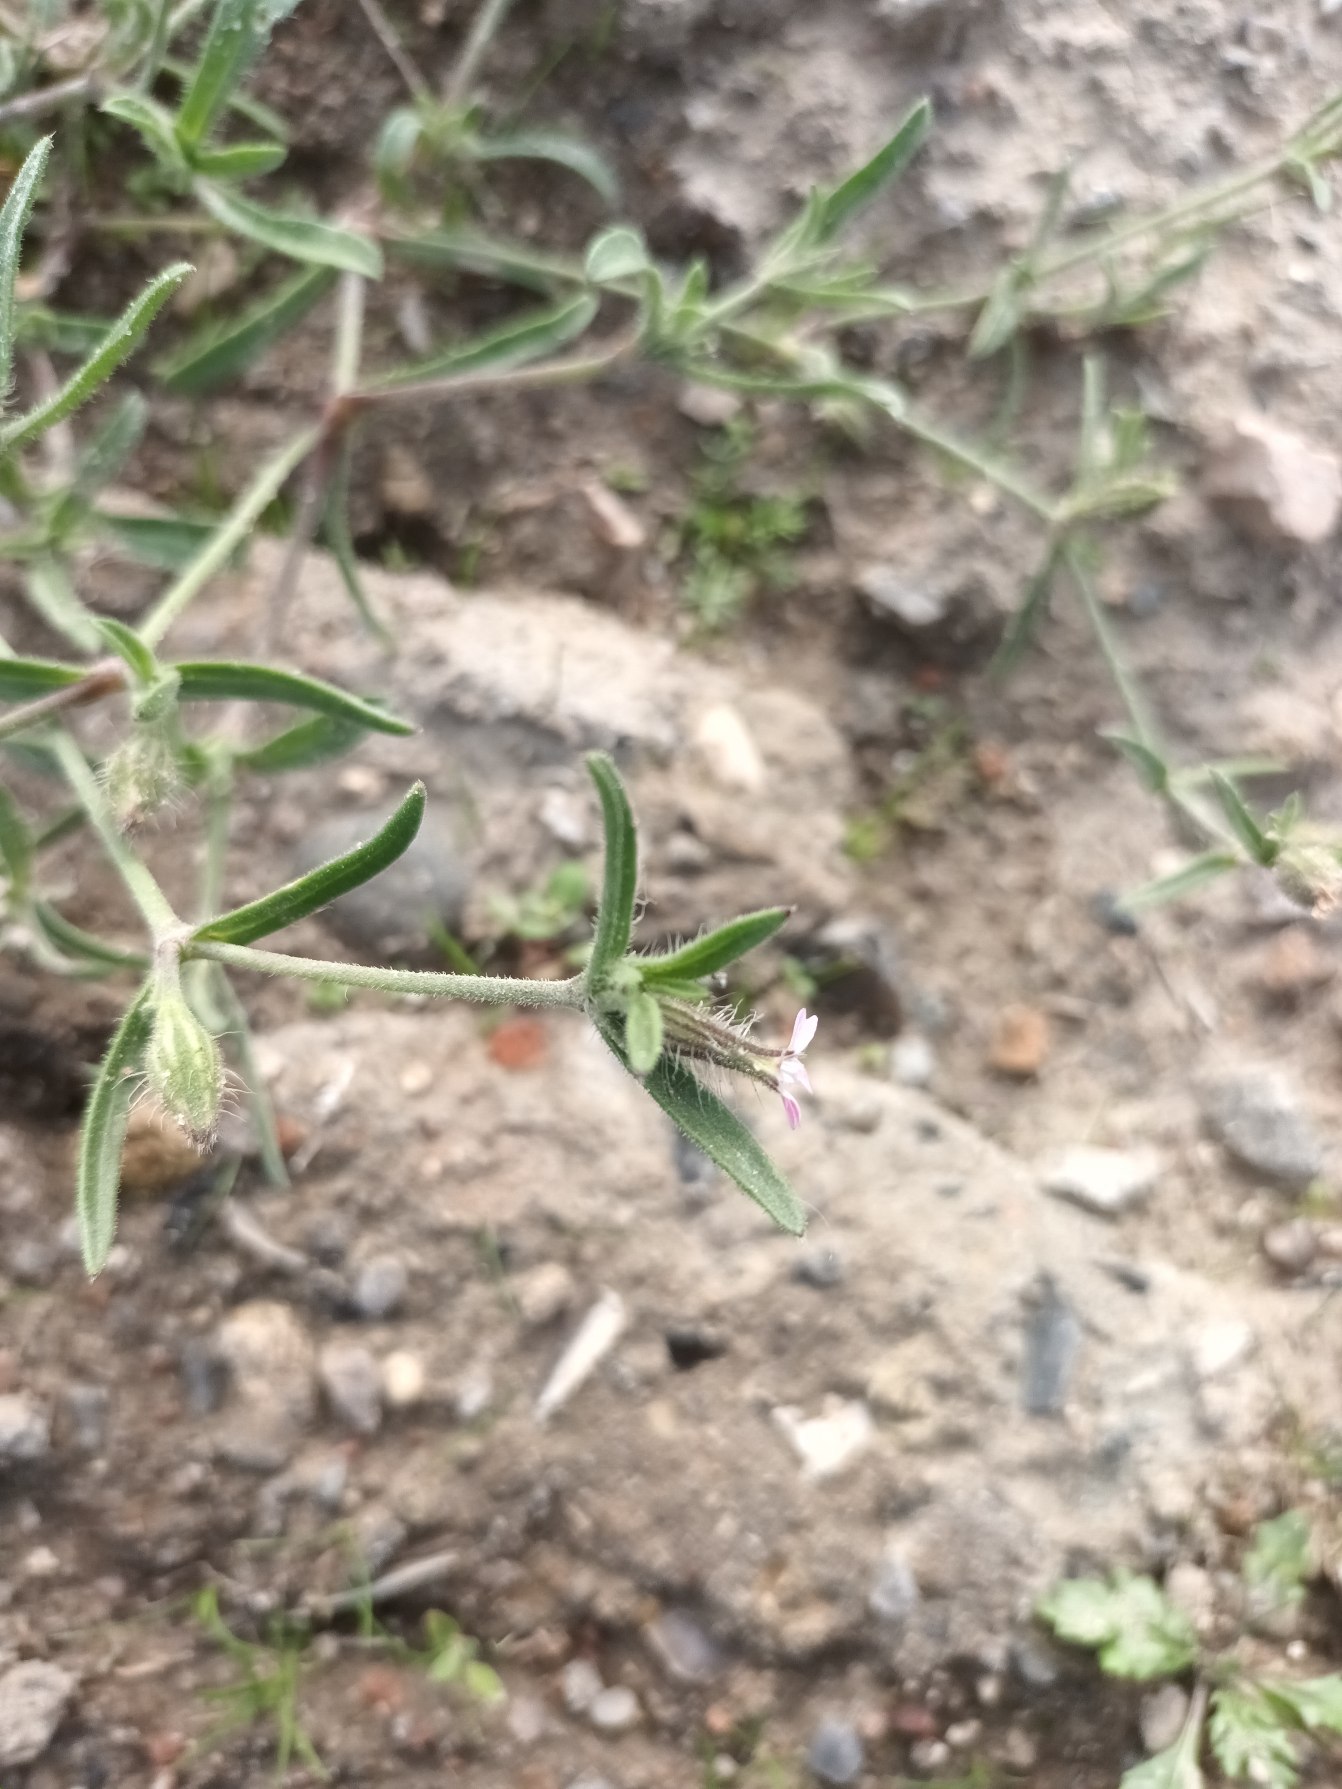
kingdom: Plantae
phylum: Tracheophyta
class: Magnoliopsida
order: Caryophyllales
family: Caryophyllaceae
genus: Silene
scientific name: Silene gallica
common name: Fransk limurt
